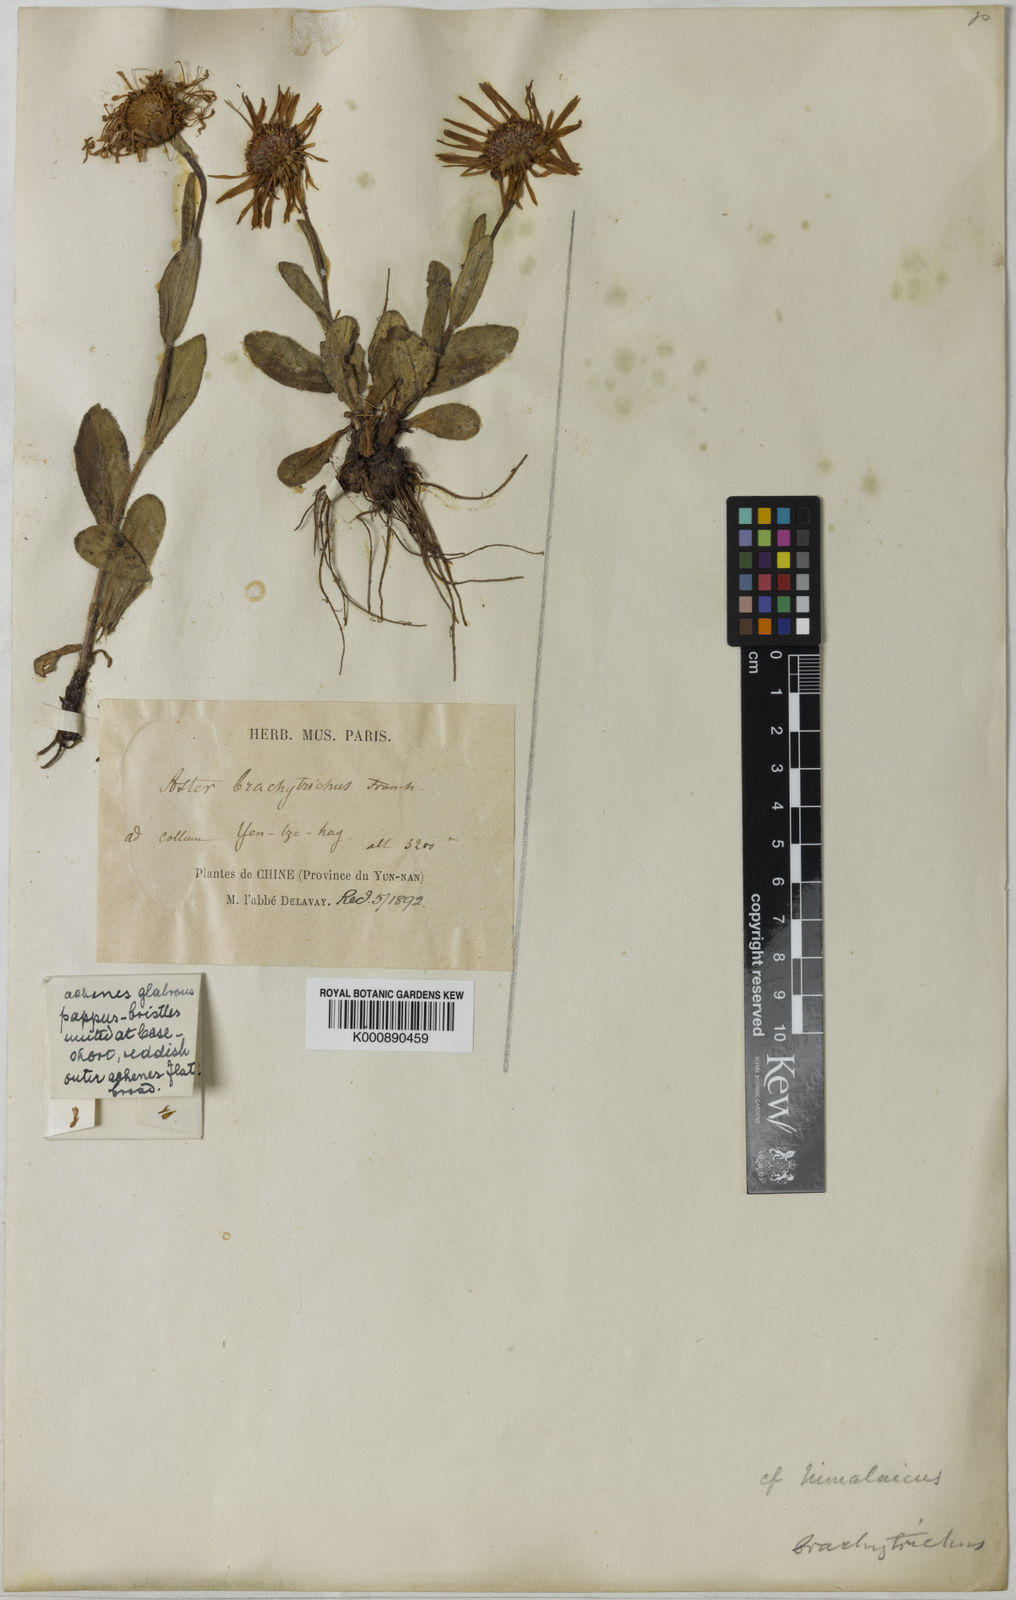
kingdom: Plantae
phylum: Tracheophyta
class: Magnoliopsida
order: Asterales
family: Asteraceae
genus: Tibetiodes
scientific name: Tibetiodes brachytricha
